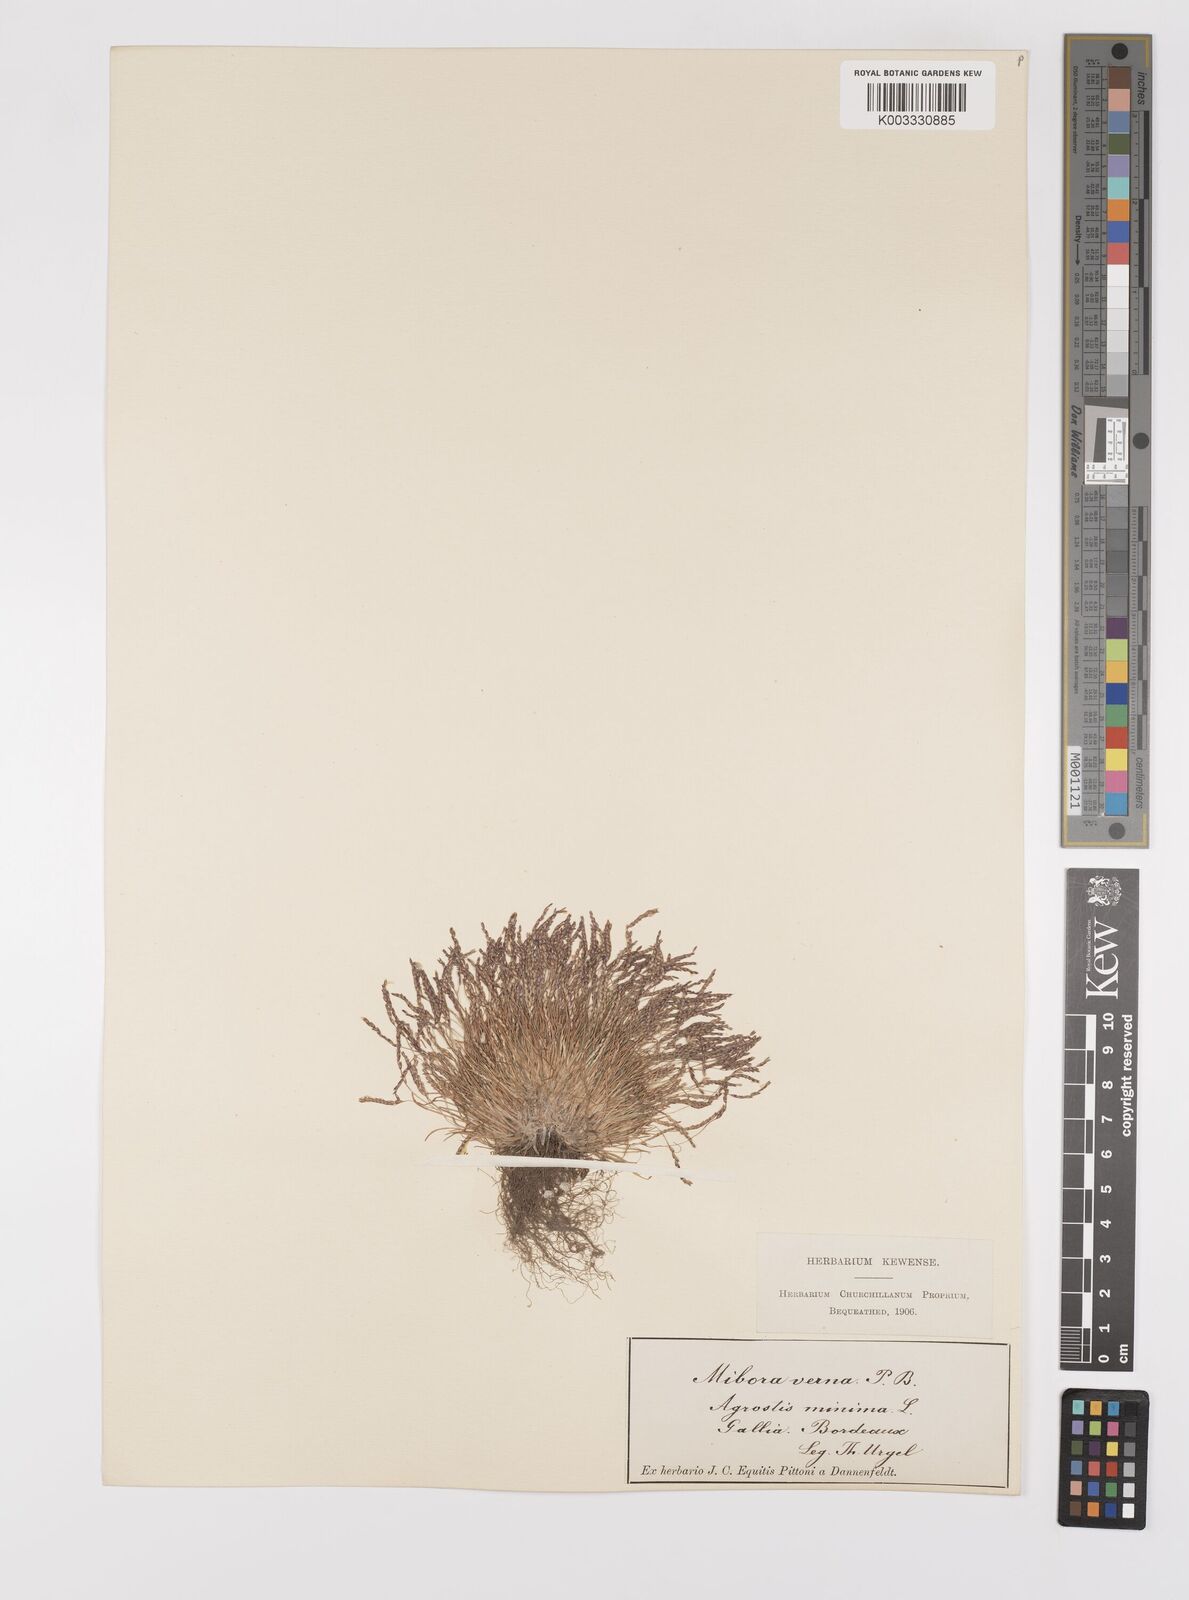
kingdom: Plantae
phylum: Tracheophyta
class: Liliopsida
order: Poales
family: Poaceae
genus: Mibora
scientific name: Mibora minima
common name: Early sand-grass
